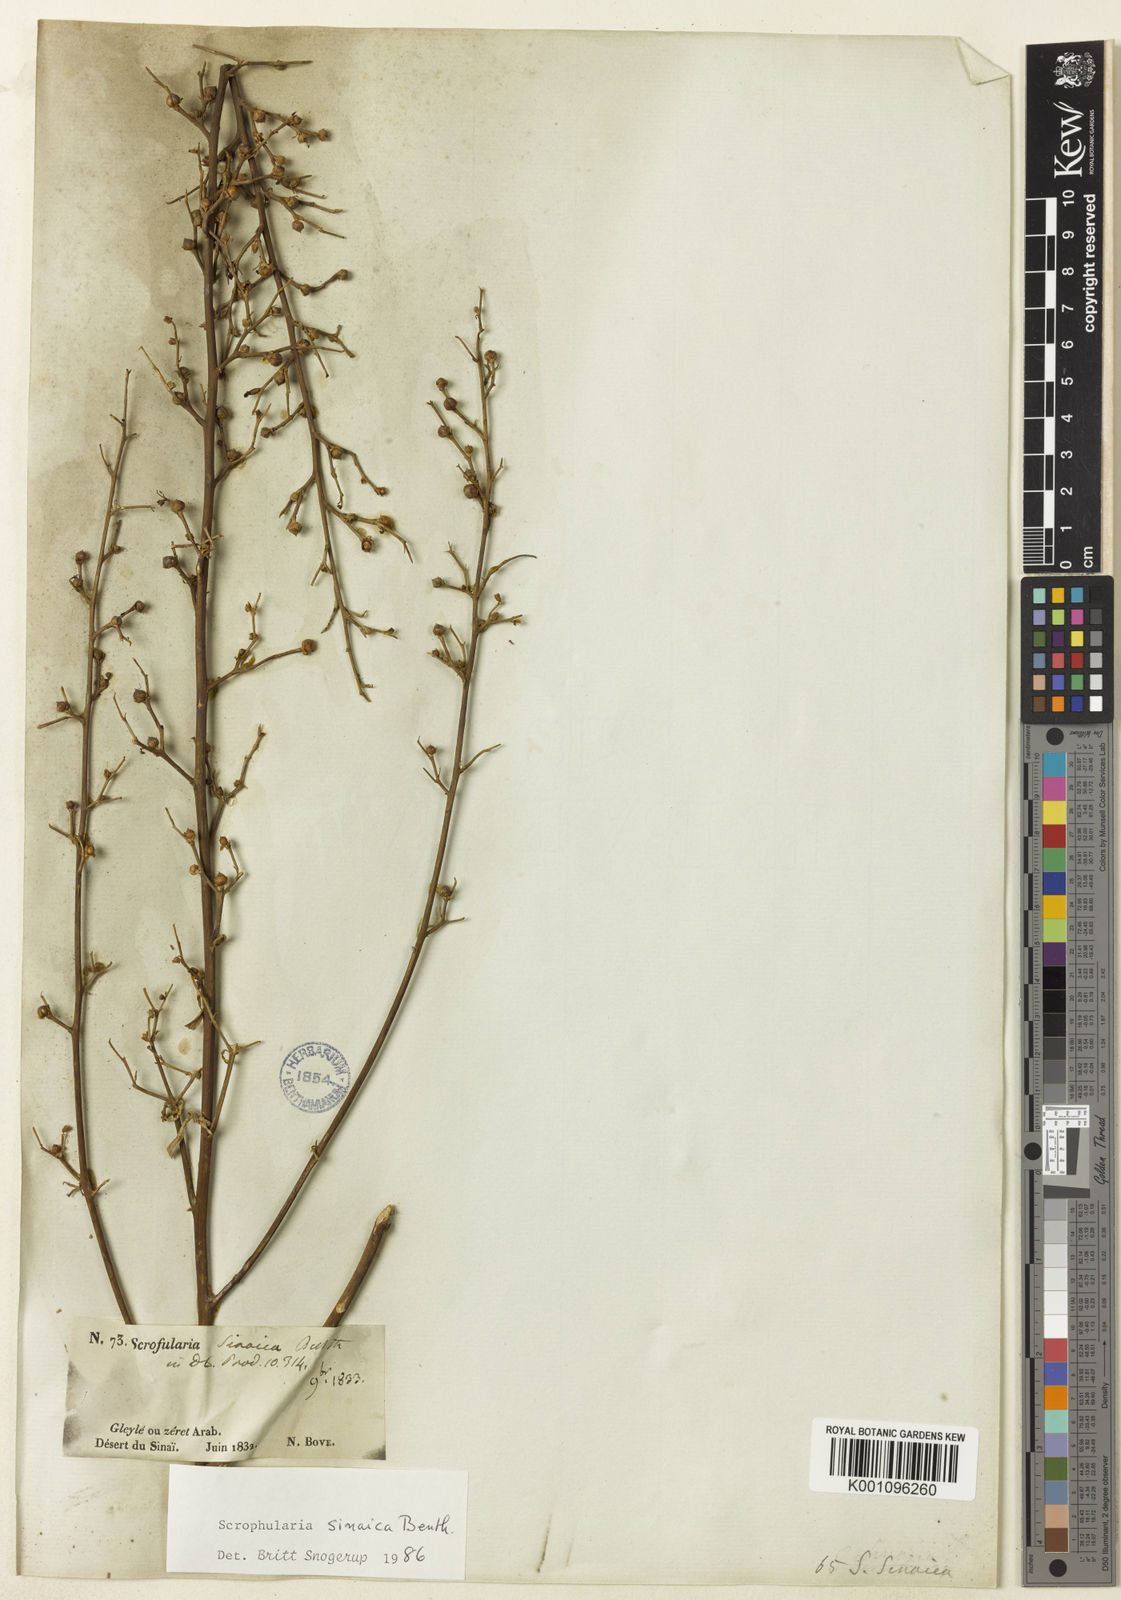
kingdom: Plantae
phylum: Tracheophyta
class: Magnoliopsida
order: Lamiales
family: Scrophulariaceae
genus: Scrophularia
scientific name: Scrophularia deserti
